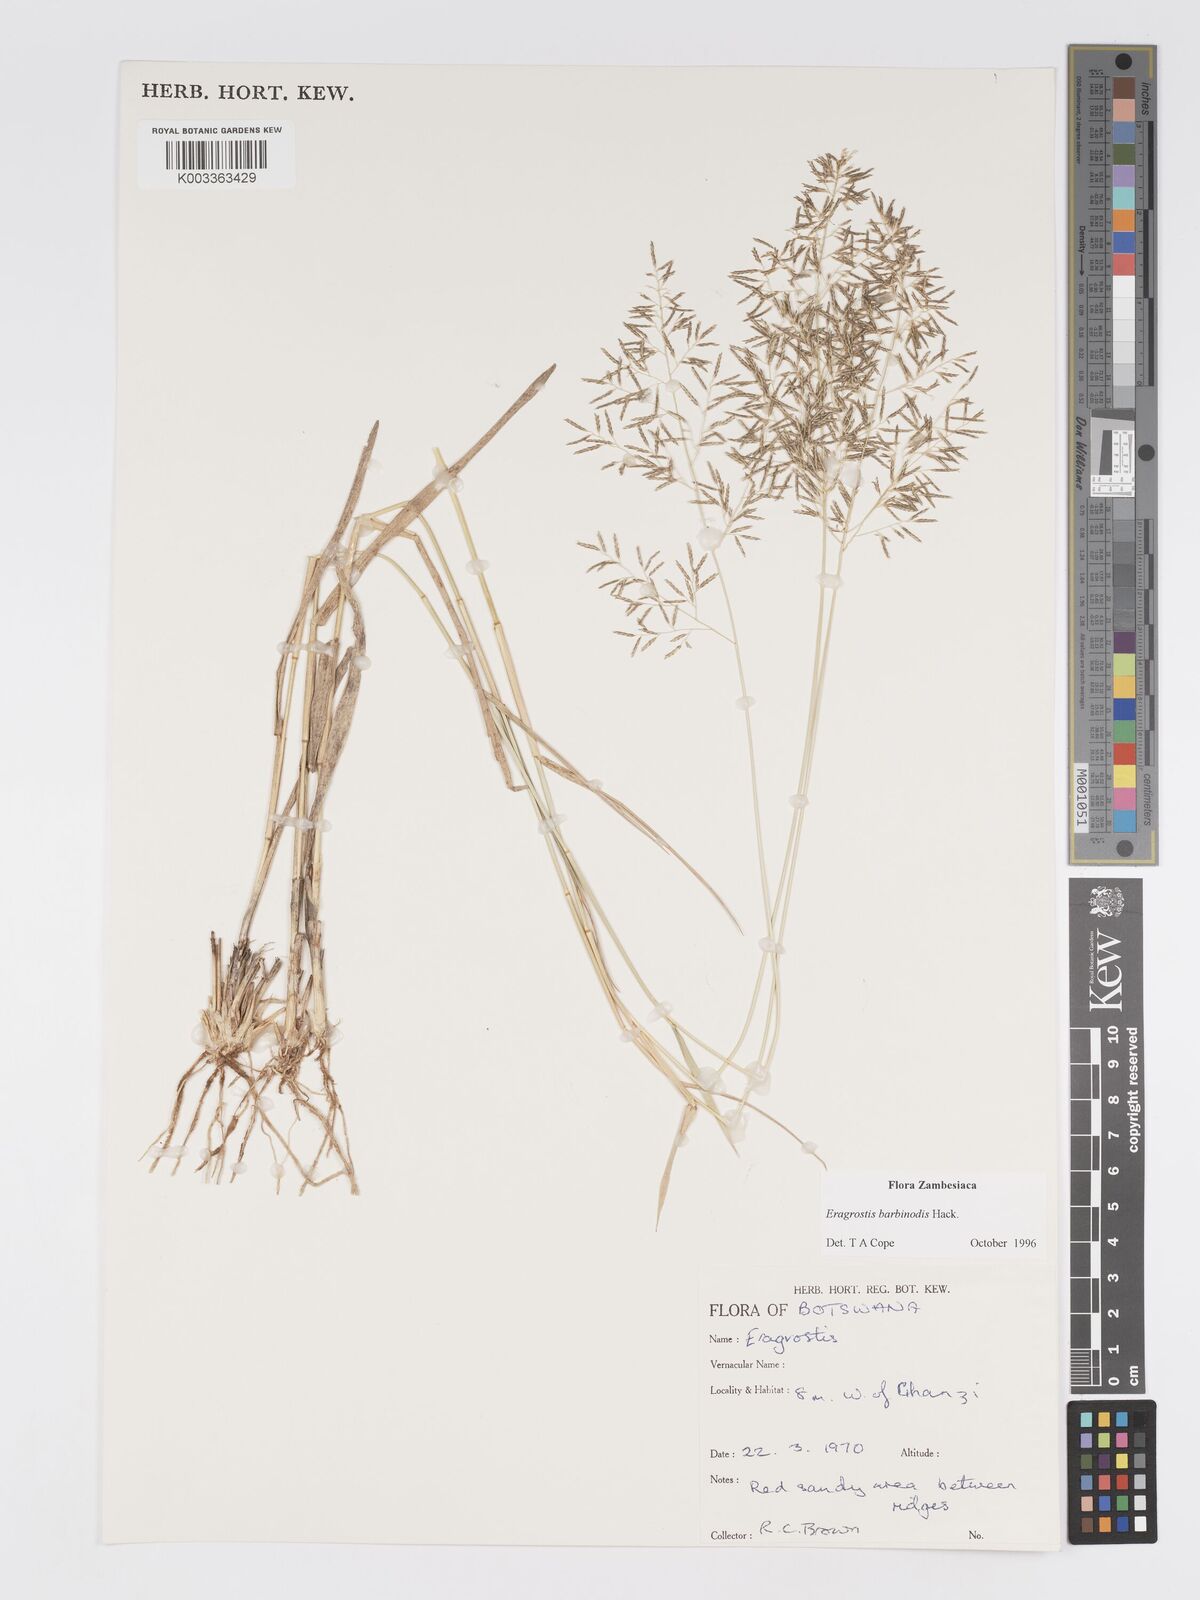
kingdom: Plantae
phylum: Tracheophyta
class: Liliopsida
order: Poales
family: Poaceae
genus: Eragrostis
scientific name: Eragrostis barbinodis
